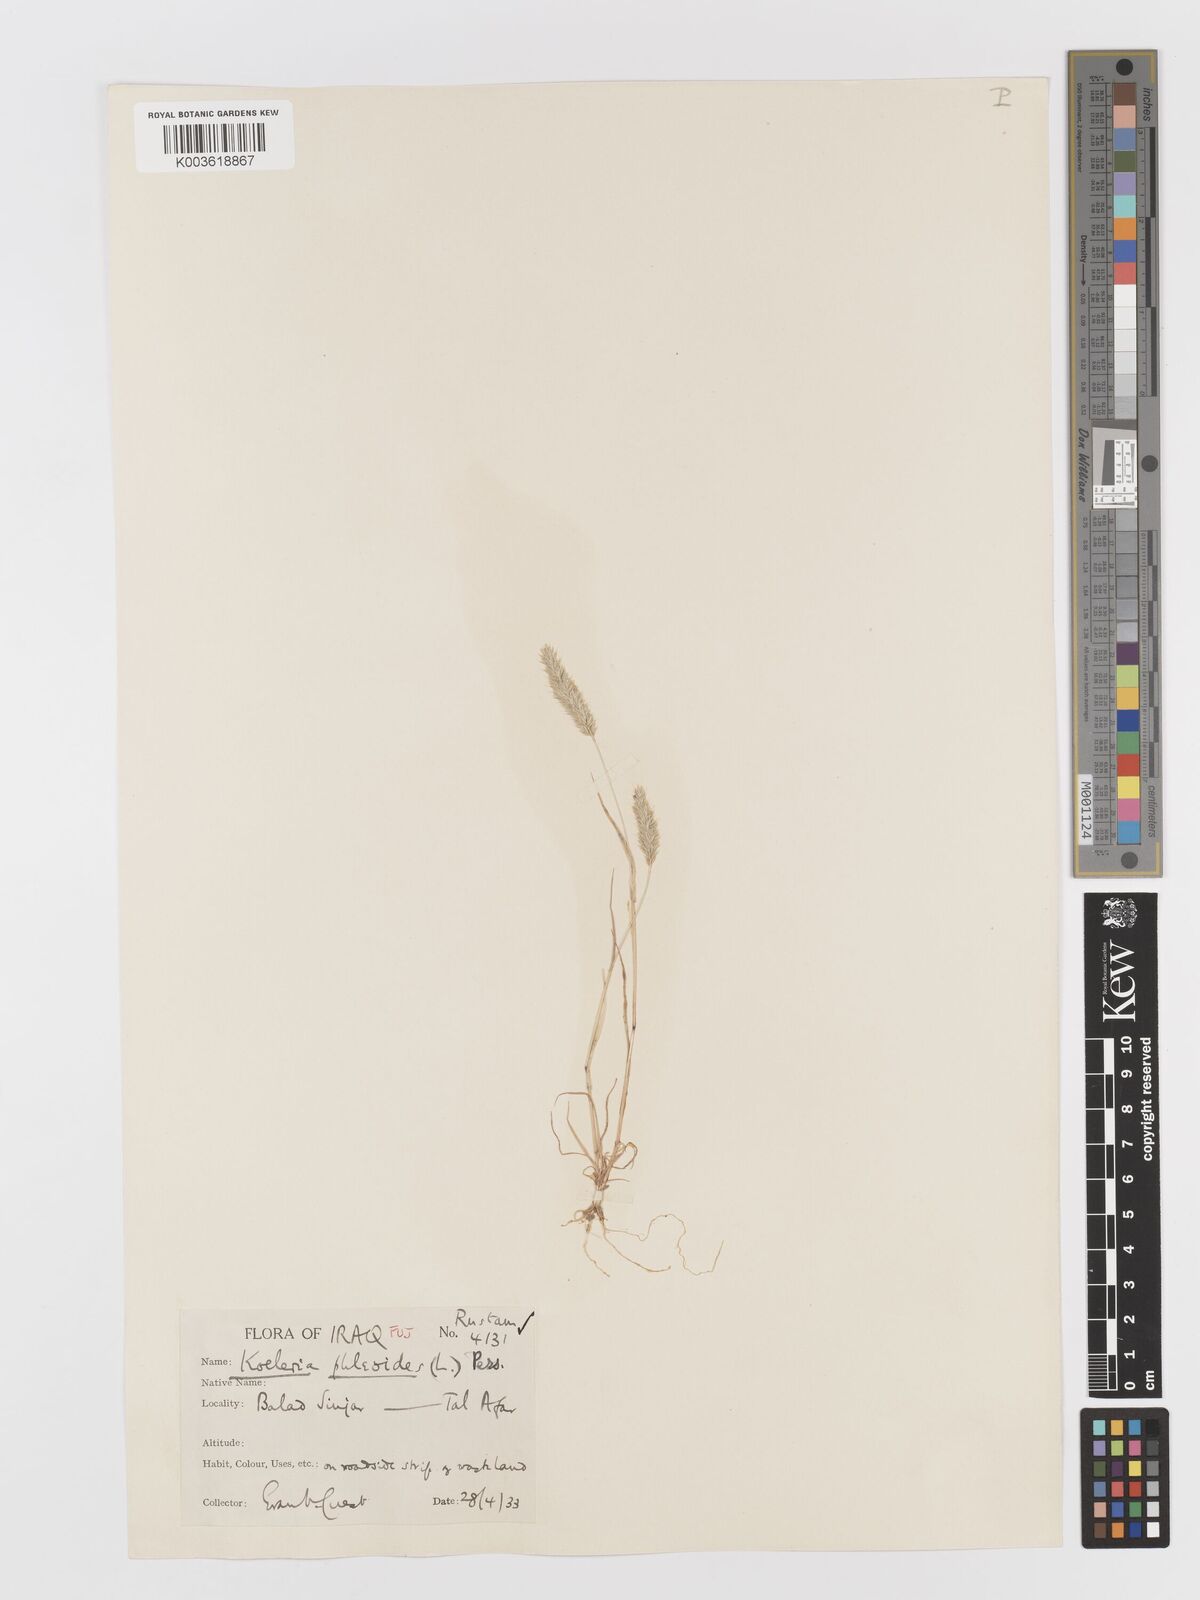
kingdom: Plantae
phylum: Tracheophyta
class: Liliopsida
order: Poales
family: Poaceae
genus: Rostraria
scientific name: Rostraria cristata
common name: Mediterranean hair-grass
